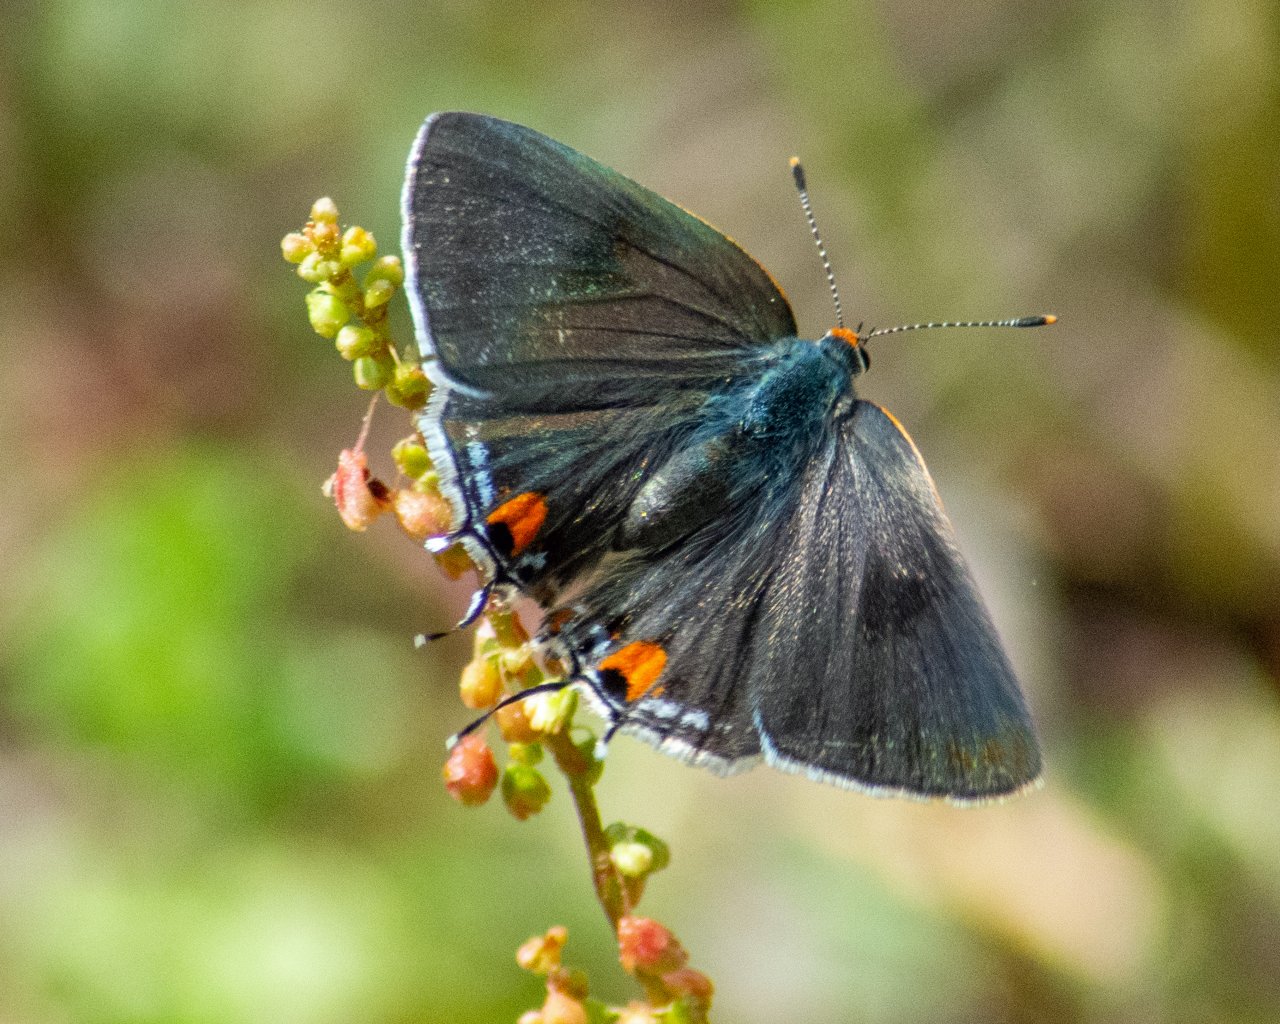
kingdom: Animalia
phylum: Arthropoda
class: Insecta
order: Lepidoptera
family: Lycaenidae
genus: Strymon
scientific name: Strymon melinus
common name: Gray Hairstreak
